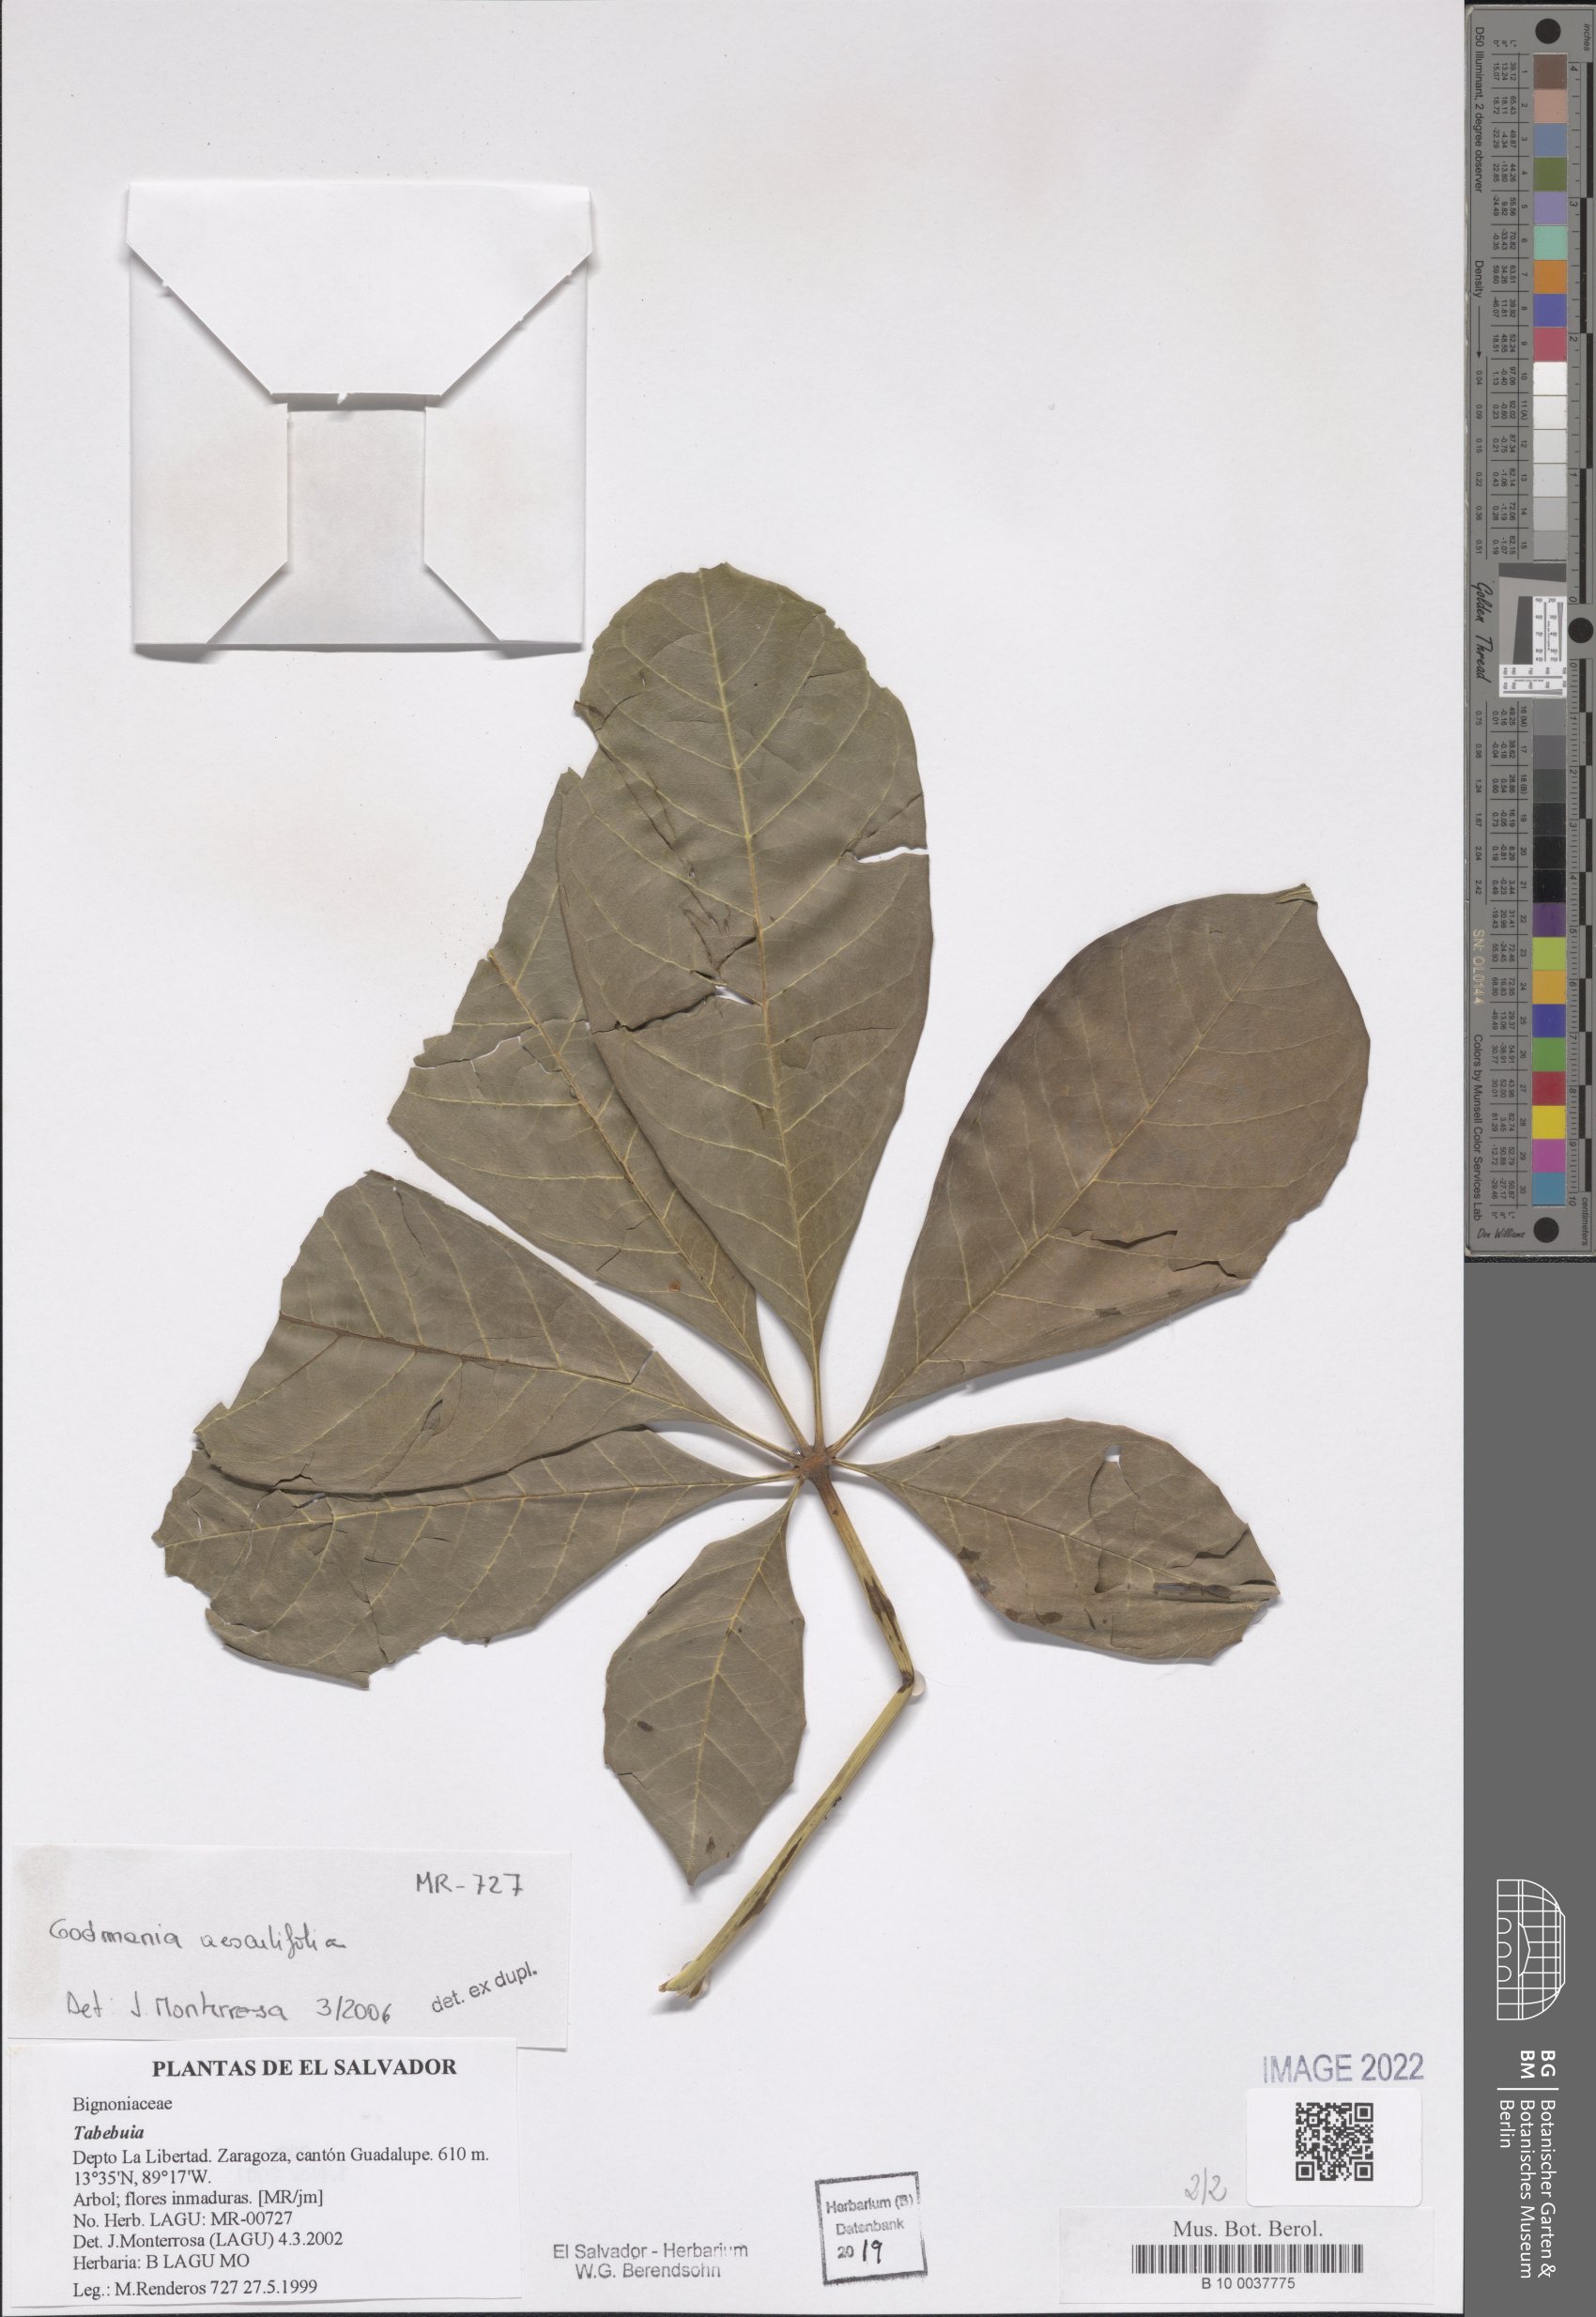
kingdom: Plantae
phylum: Tracheophyta
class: Magnoliopsida
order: Lamiales
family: Bignoniaceae
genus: Godmania
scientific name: Godmania aesculifolia
